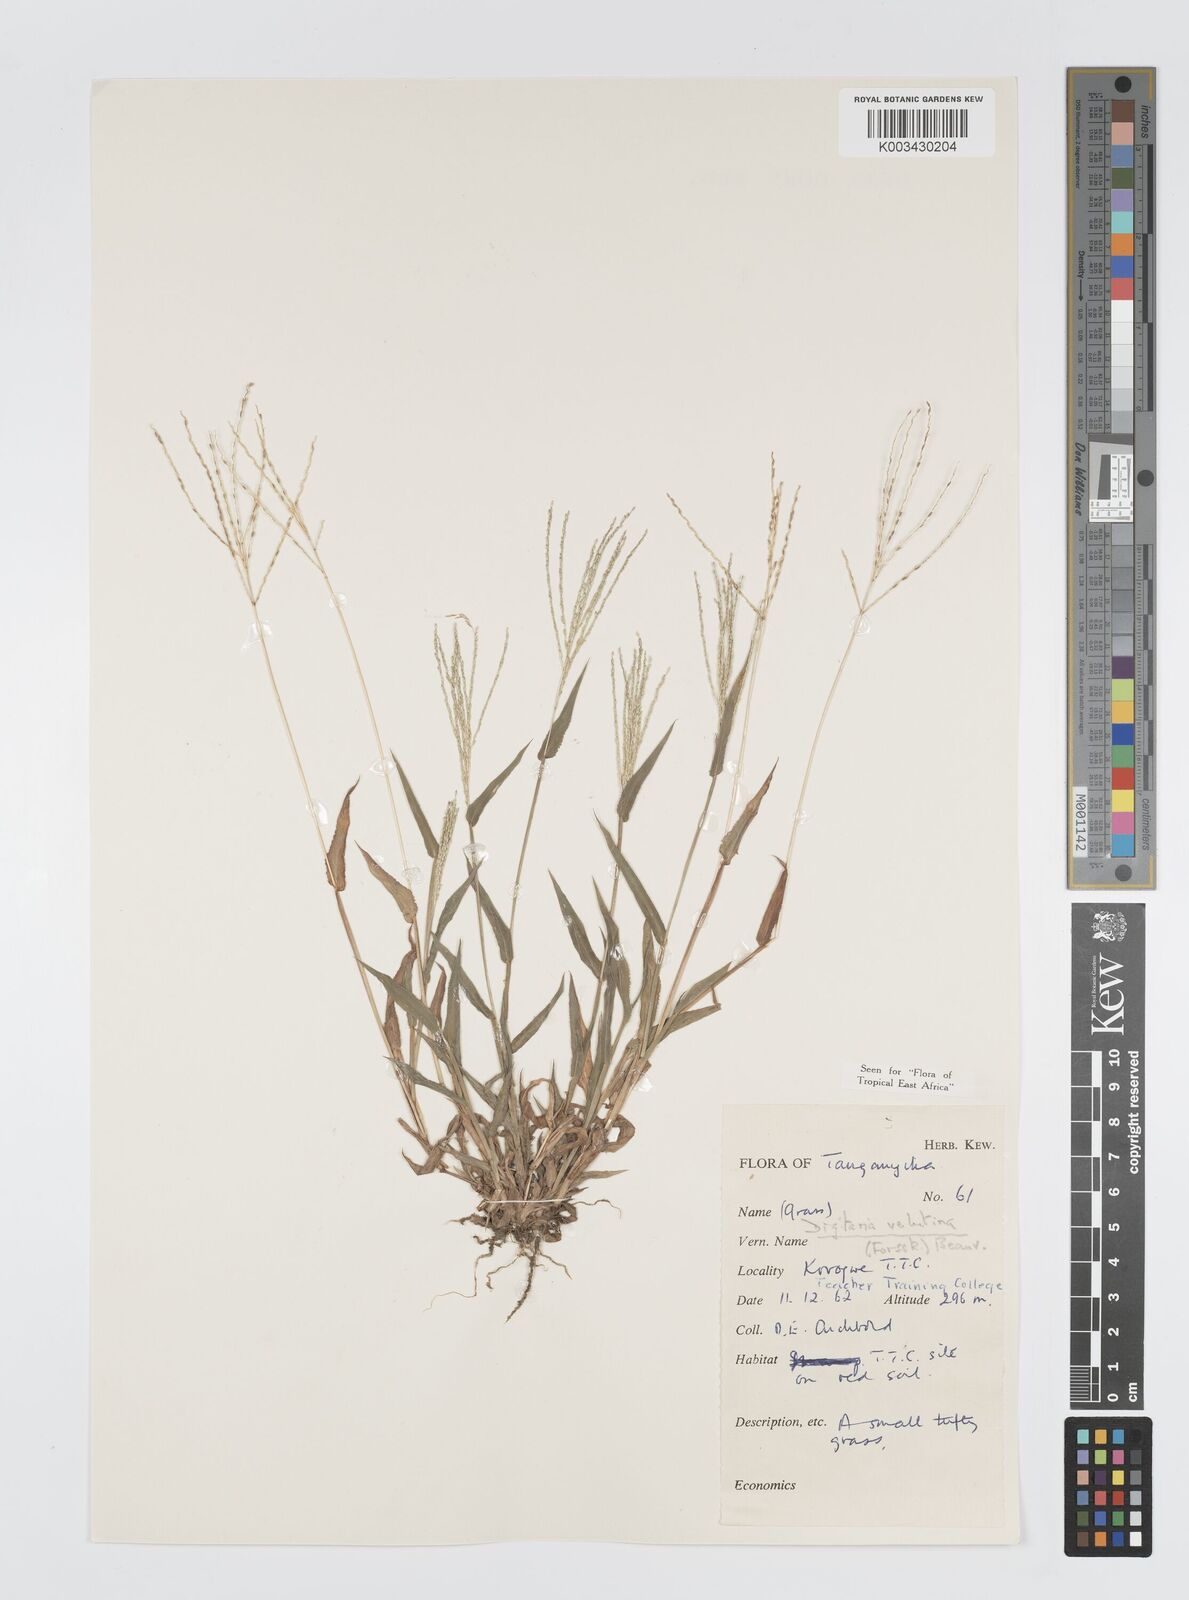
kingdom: Plantae
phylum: Tracheophyta
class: Liliopsida
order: Poales
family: Poaceae
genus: Digitaria
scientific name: Digitaria velutina
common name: Long-plume finger grass
